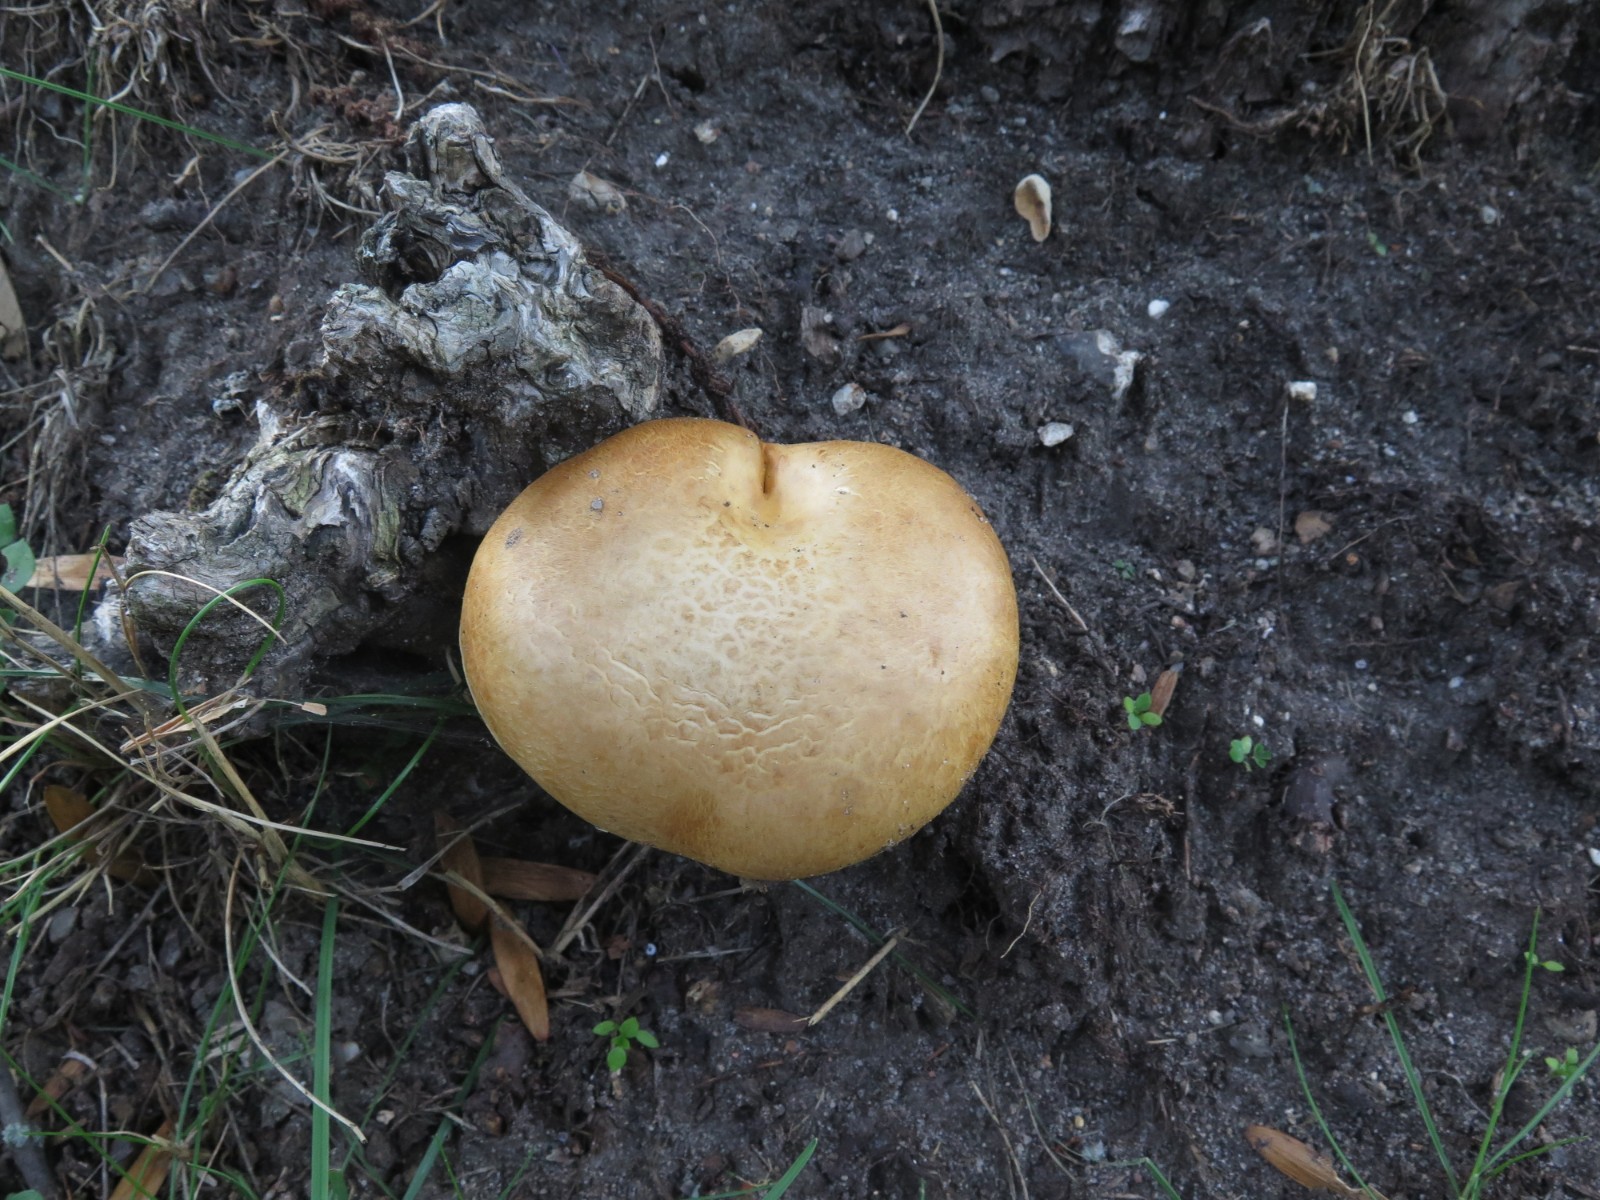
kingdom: Fungi
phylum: Basidiomycota
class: Agaricomycetes
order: Agaricales
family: Hymenogastraceae
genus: Gymnopilus
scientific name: Gymnopilus spectabilis
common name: fibret flammehat
